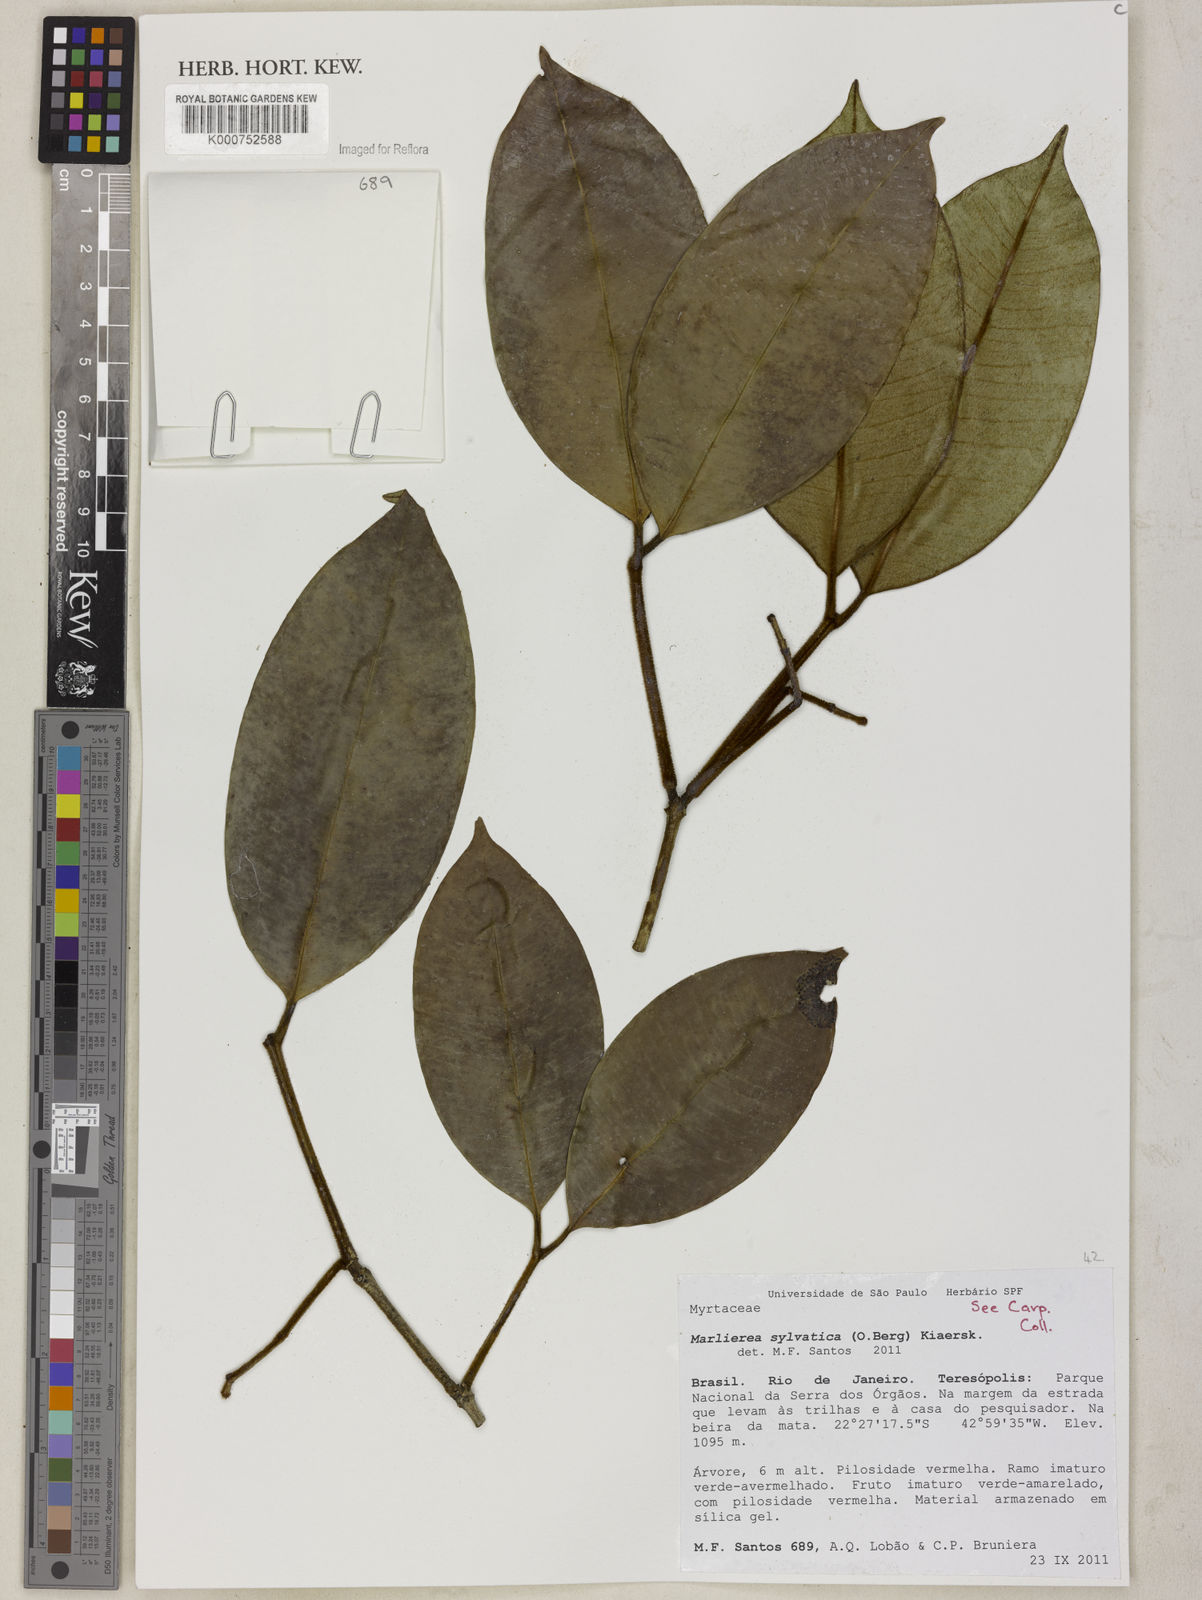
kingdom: Plantae
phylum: Tracheophyta
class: Magnoliopsida
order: Myrtales
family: Myrtaceae
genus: Myrcia
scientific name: Myrcia ferruginosa
